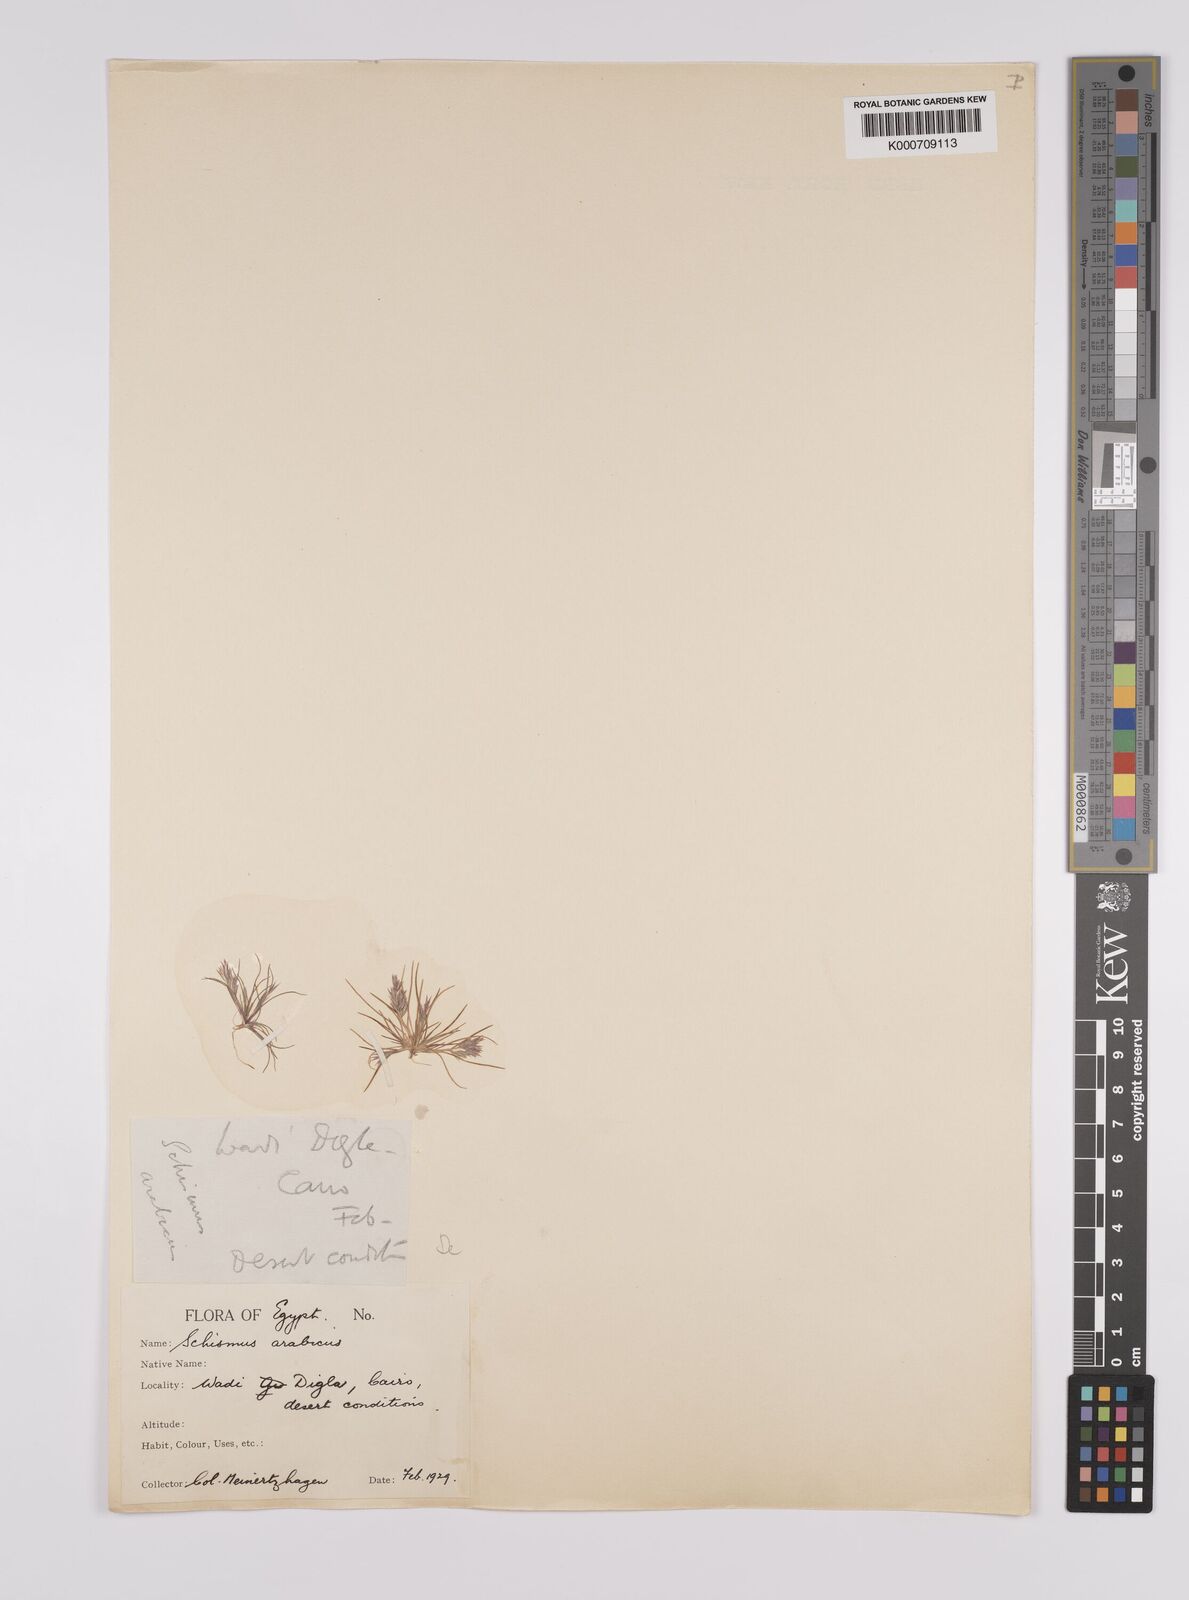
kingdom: Plantae
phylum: Tracheophyta
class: Liliopsida
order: Poales
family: Poaceae
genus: Schismus
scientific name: Schismus arabicus
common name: Arabian schismus
